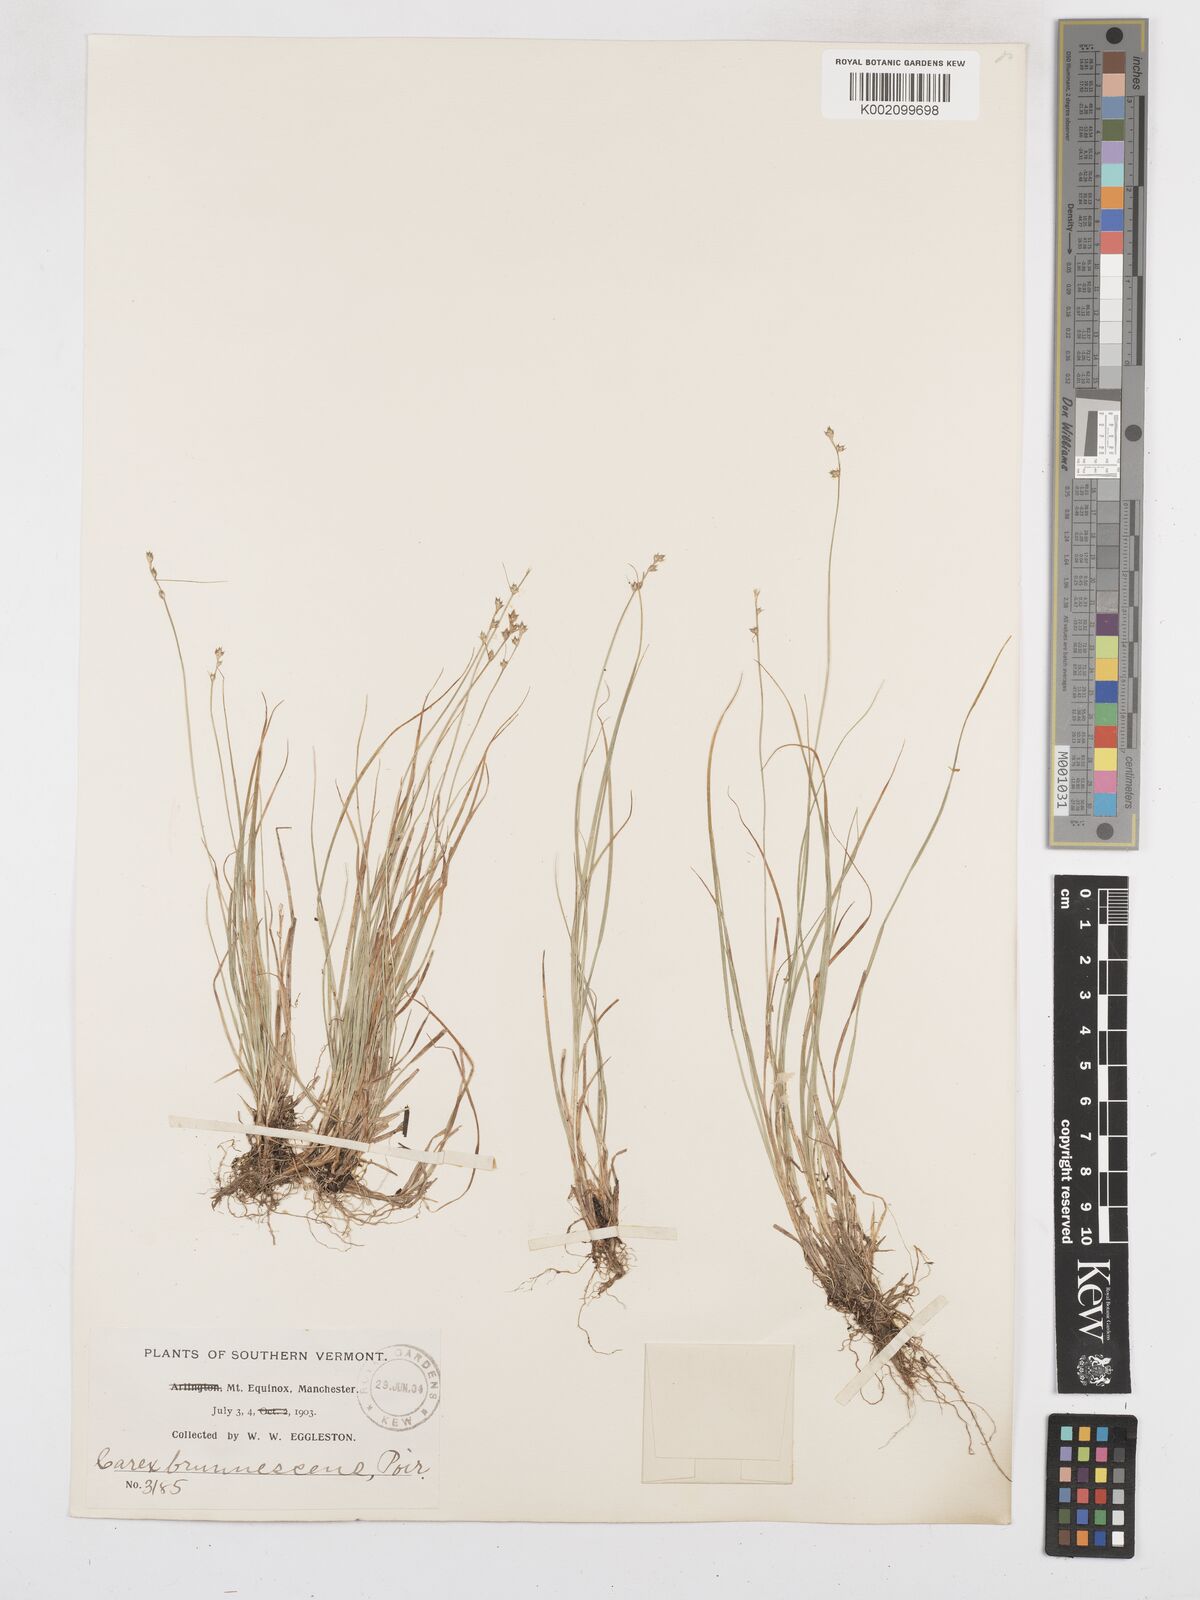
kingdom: Plantae
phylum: Tracheophyta
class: Liliopsida
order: Poales
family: Cyperaceae
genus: Carex
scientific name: Carex brunnescens
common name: Brown sedge
